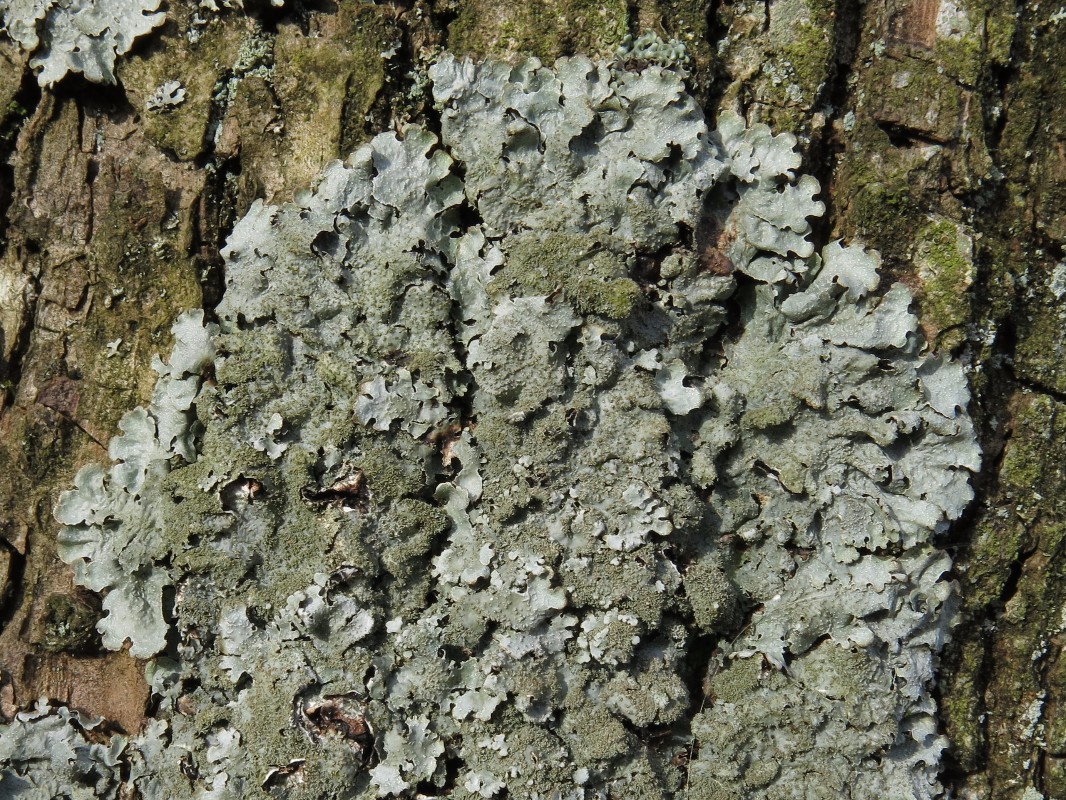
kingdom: Fungi
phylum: Ascomycota
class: Lecanoromycetes
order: Lecanorales
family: Parmeliaceae
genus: Parmelia
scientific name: Parmelia saxatilis
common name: farve-skållav
